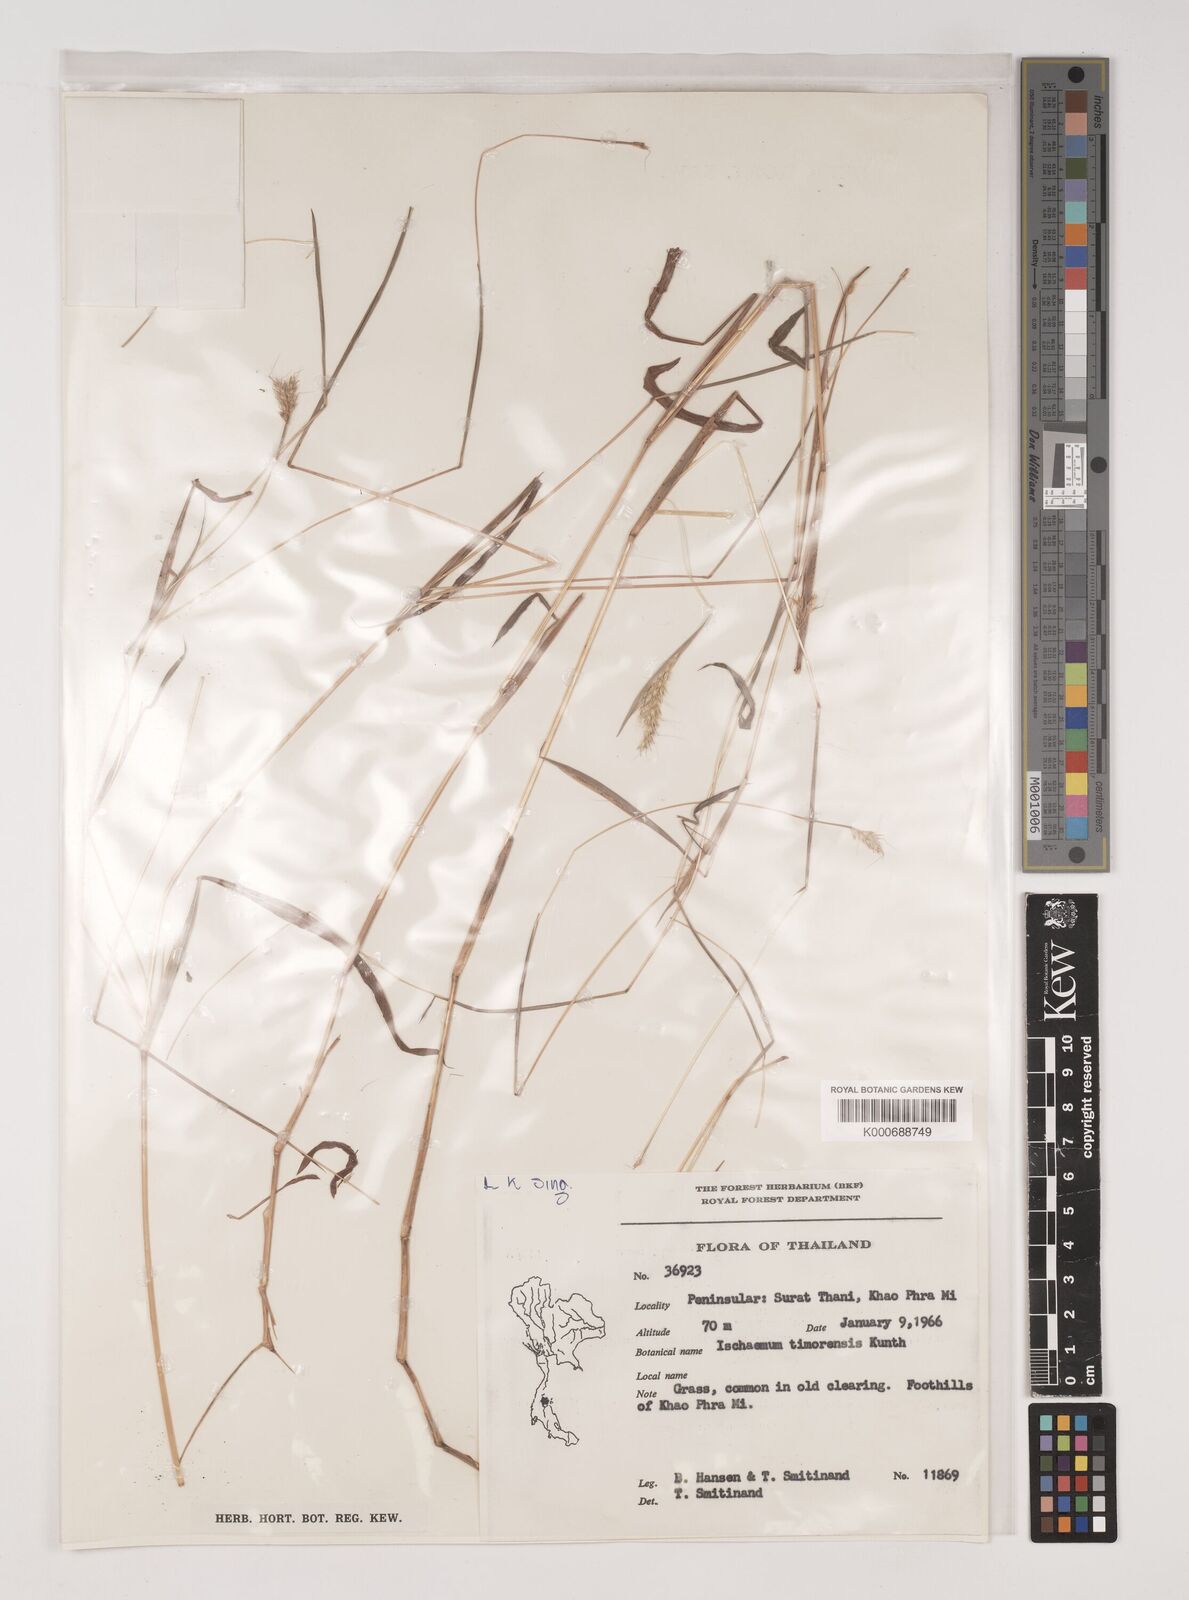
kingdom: Plantae
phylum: Tracheophyta
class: Liliopsida
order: Poales
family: Poaceae
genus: Ischaemum
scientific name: Ischaemum timorense
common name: Stalkleaf murainagrass
